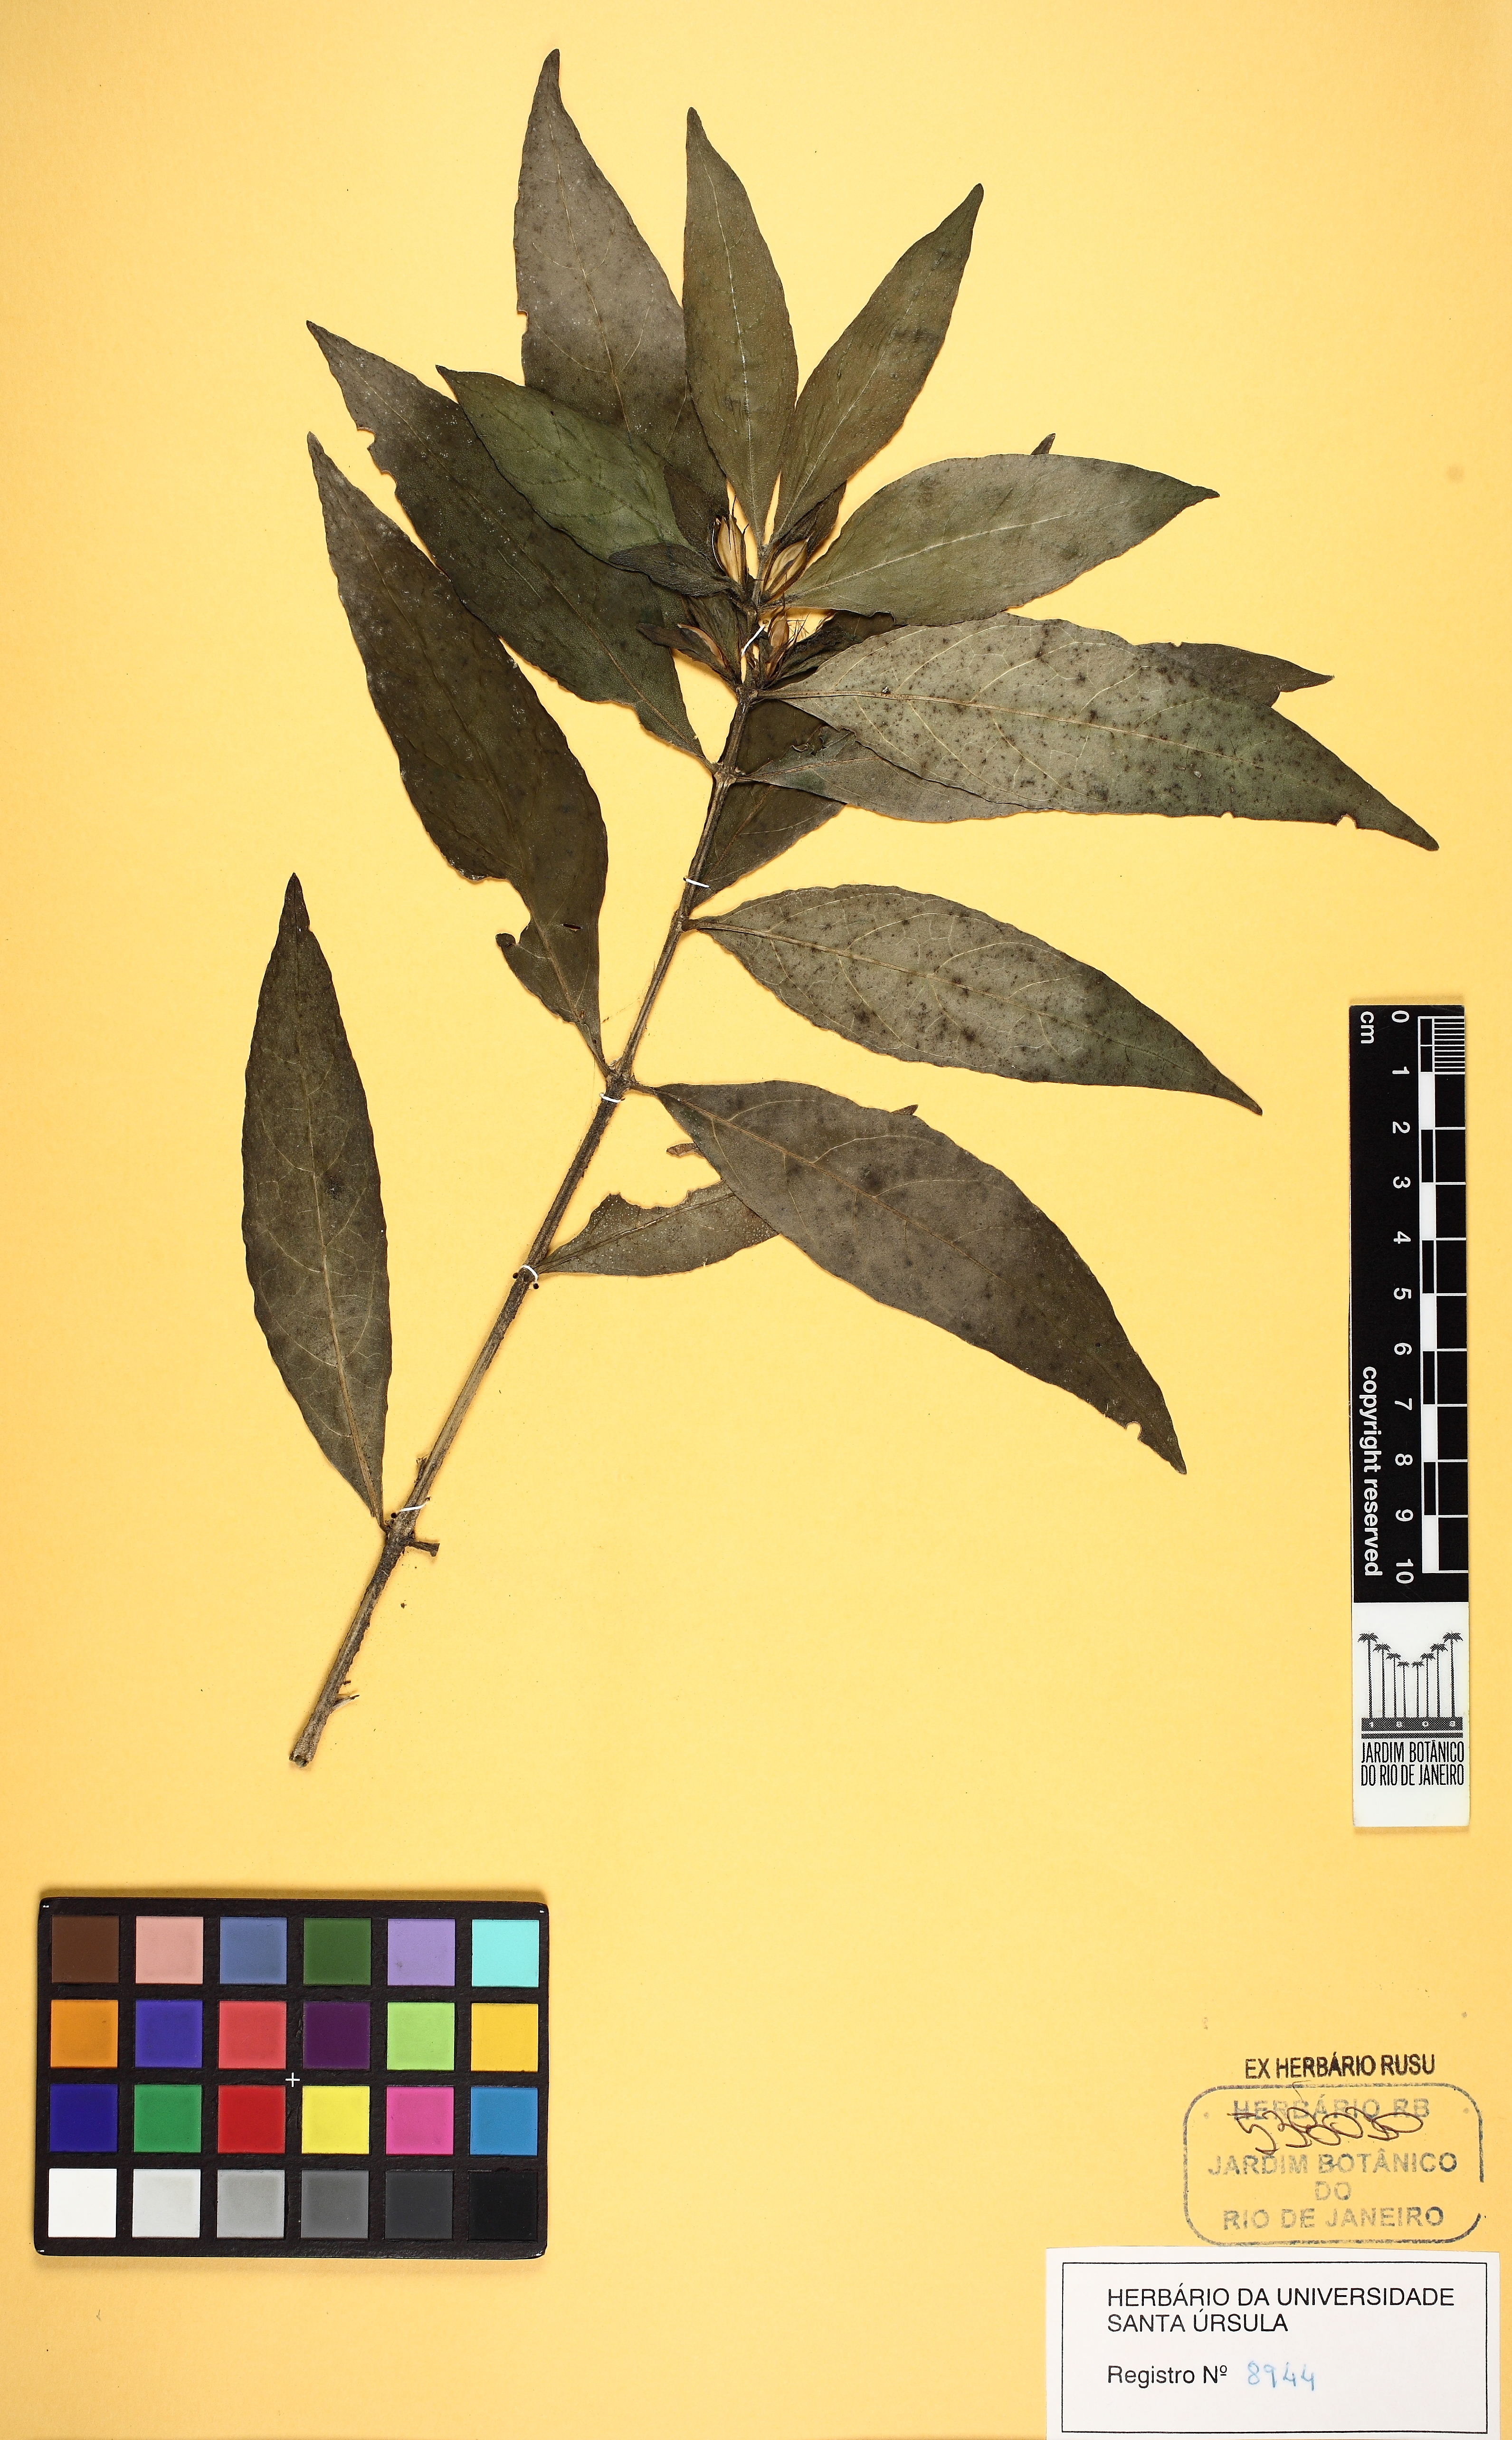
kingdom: Plantae
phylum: Tracheophyta
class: Magnoliopsida
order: Lamiales
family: Acanthaceae
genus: Ruellia
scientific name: Ruellia solitaria
